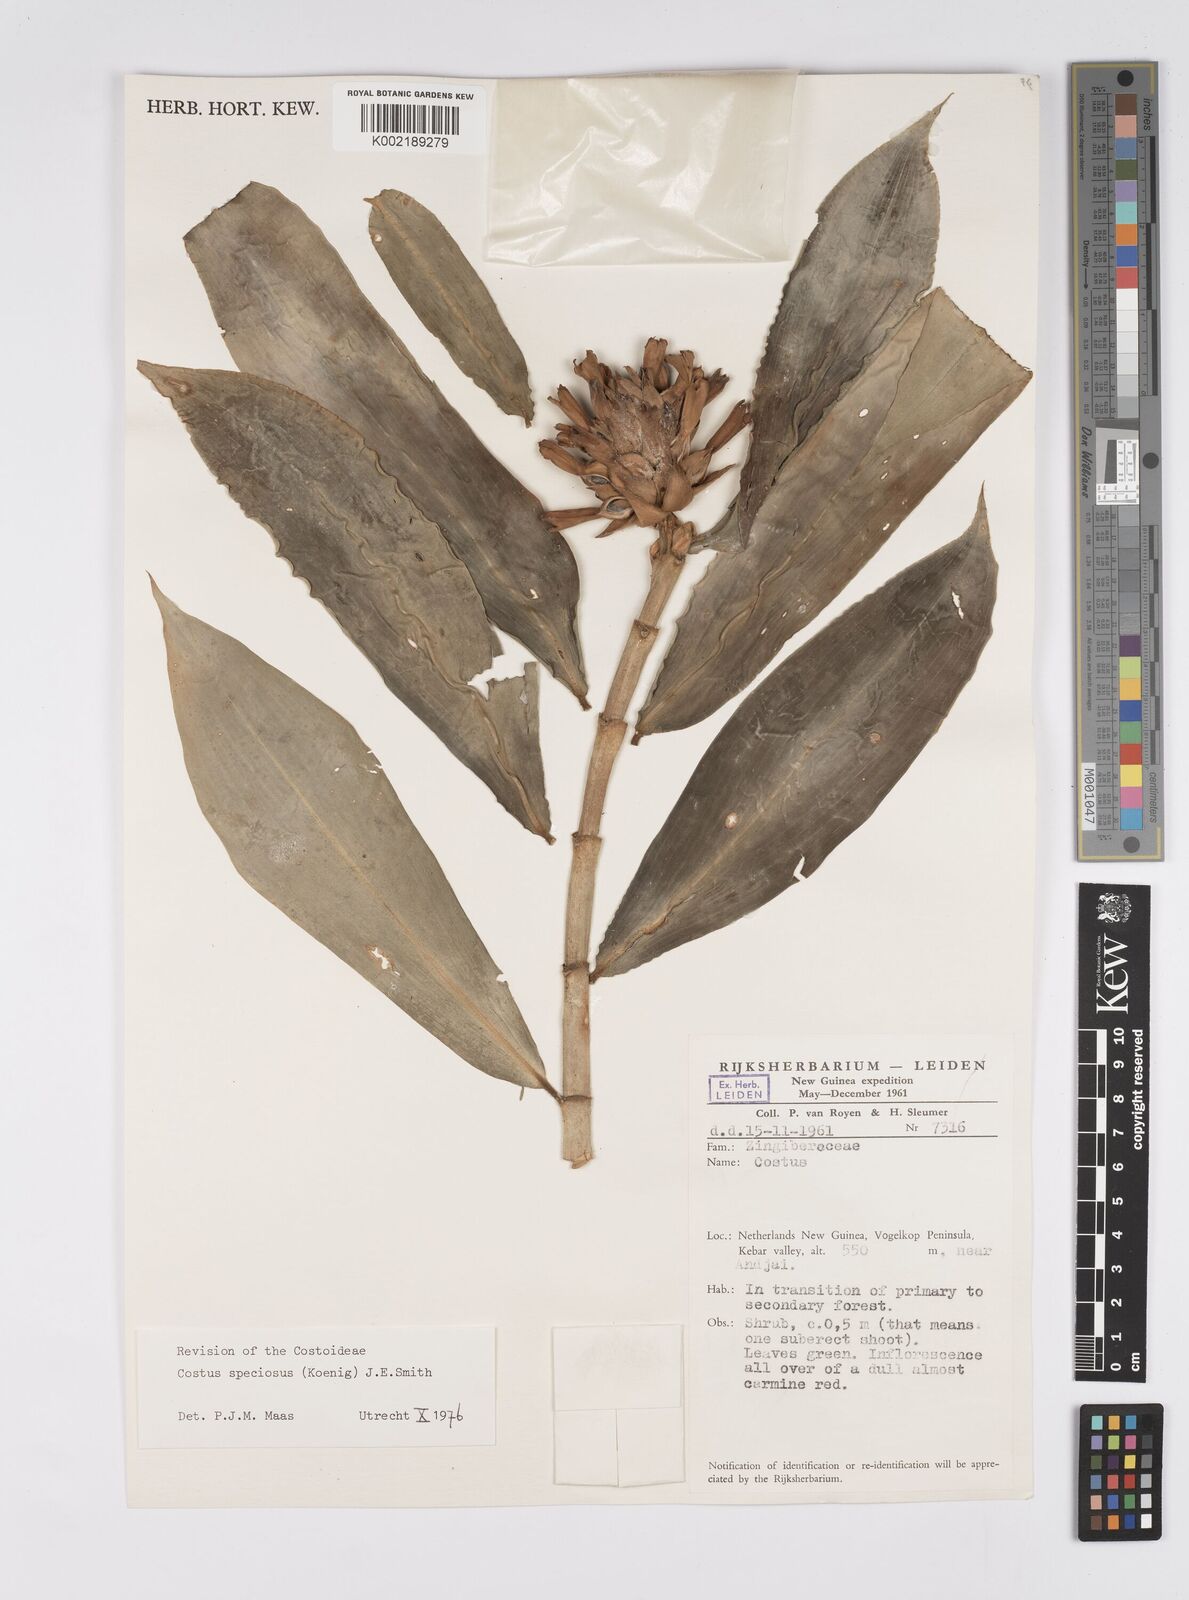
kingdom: Plantae
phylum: Tracheophyta
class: Liliopsida
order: Zingiberales
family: Costaceae
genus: Hellenia
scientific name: Hellenia speciosa
